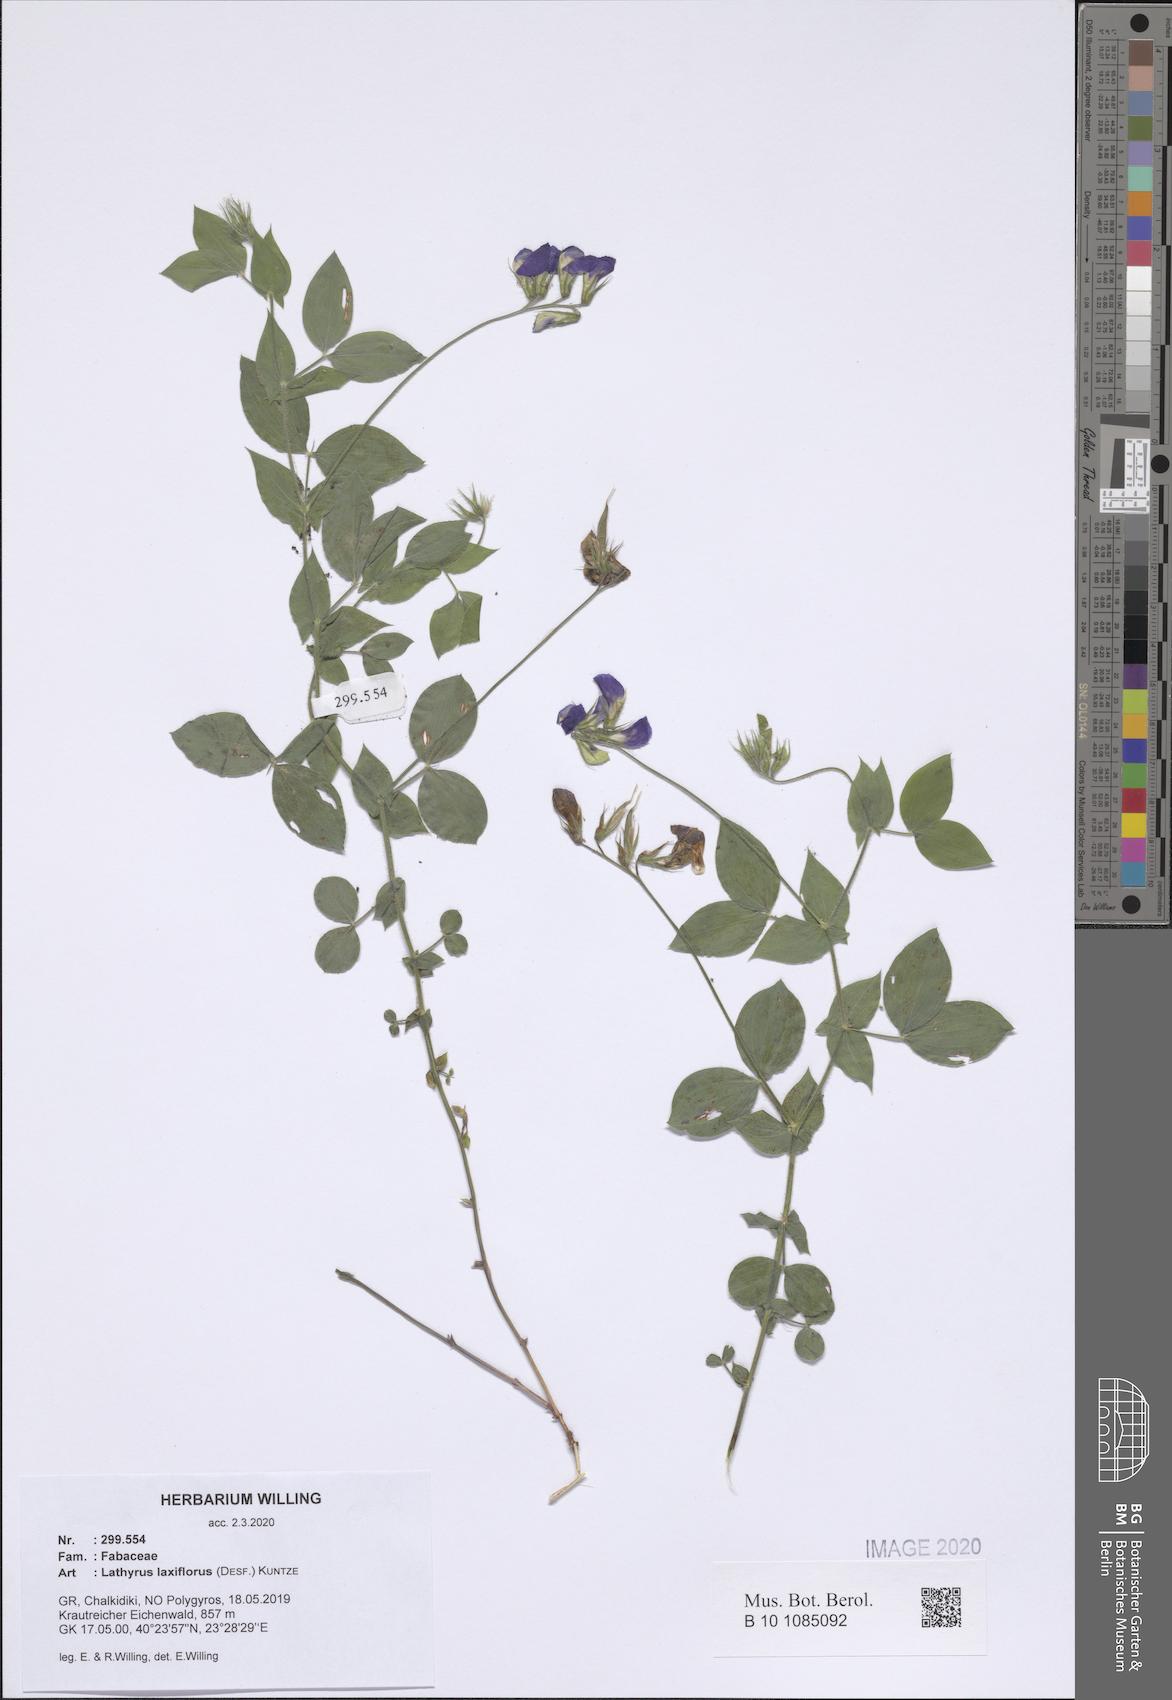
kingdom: Plantae
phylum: Tracheophyta
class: Magnoliopsida
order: Fabales
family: Fabaceae
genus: Lathyrus
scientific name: Lathyrus laxiflorus
